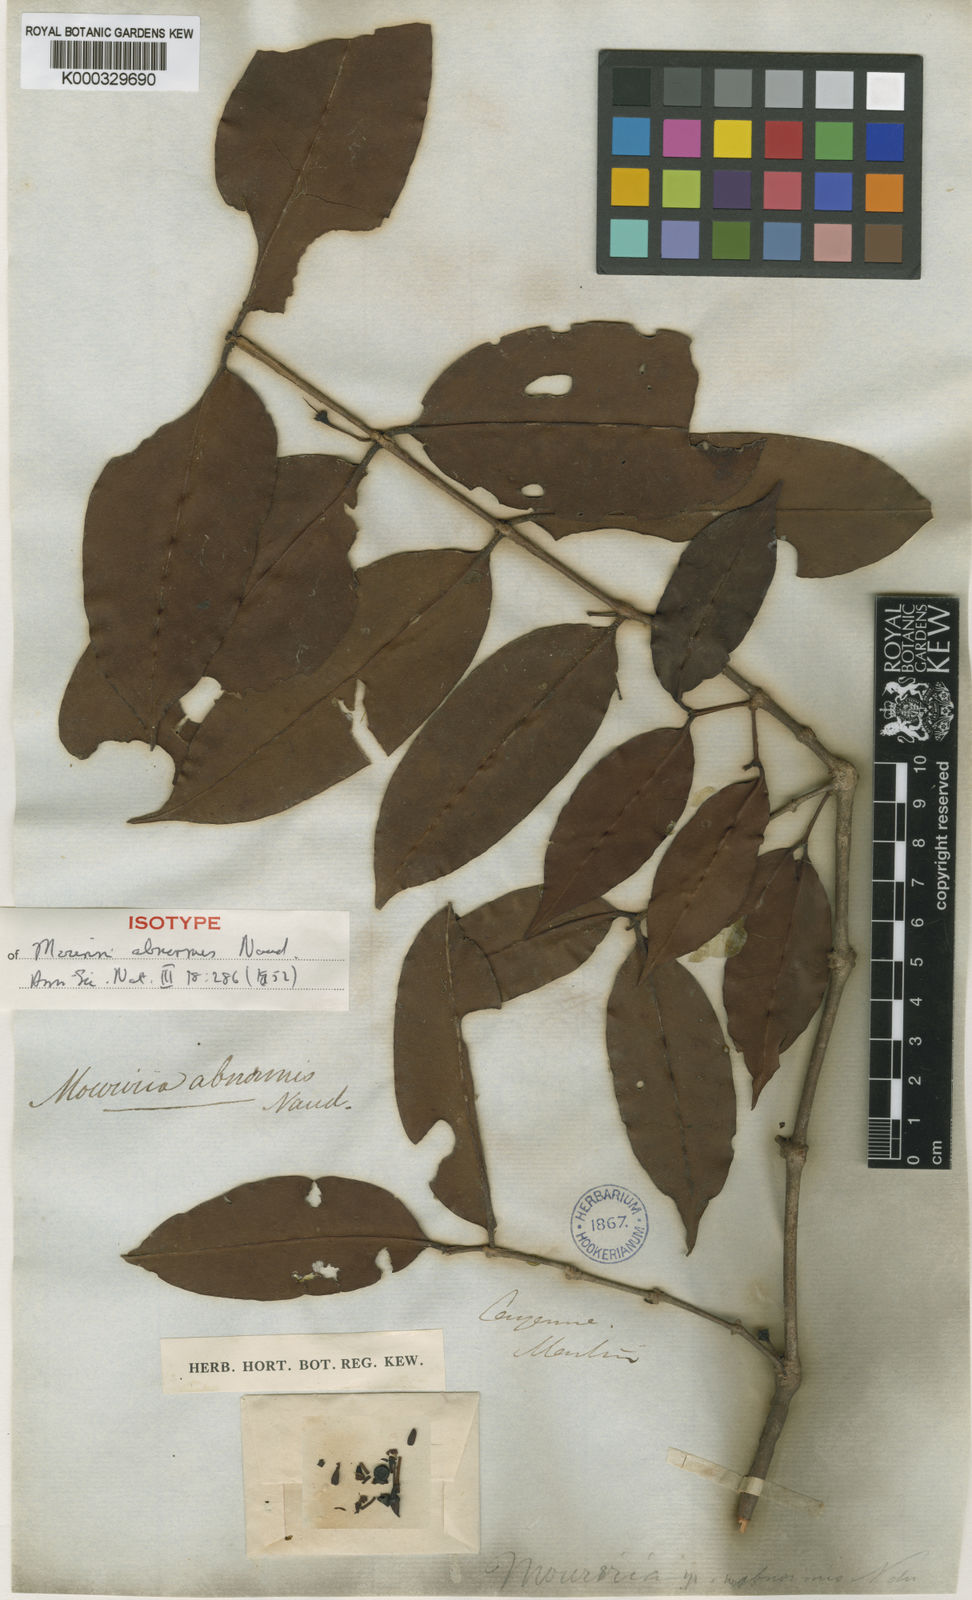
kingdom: Plantae
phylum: Tracheophyta
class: Magnoliopsida
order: Myrtales
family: Melastomataceae
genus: Votomita
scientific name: Votomita guianensis
